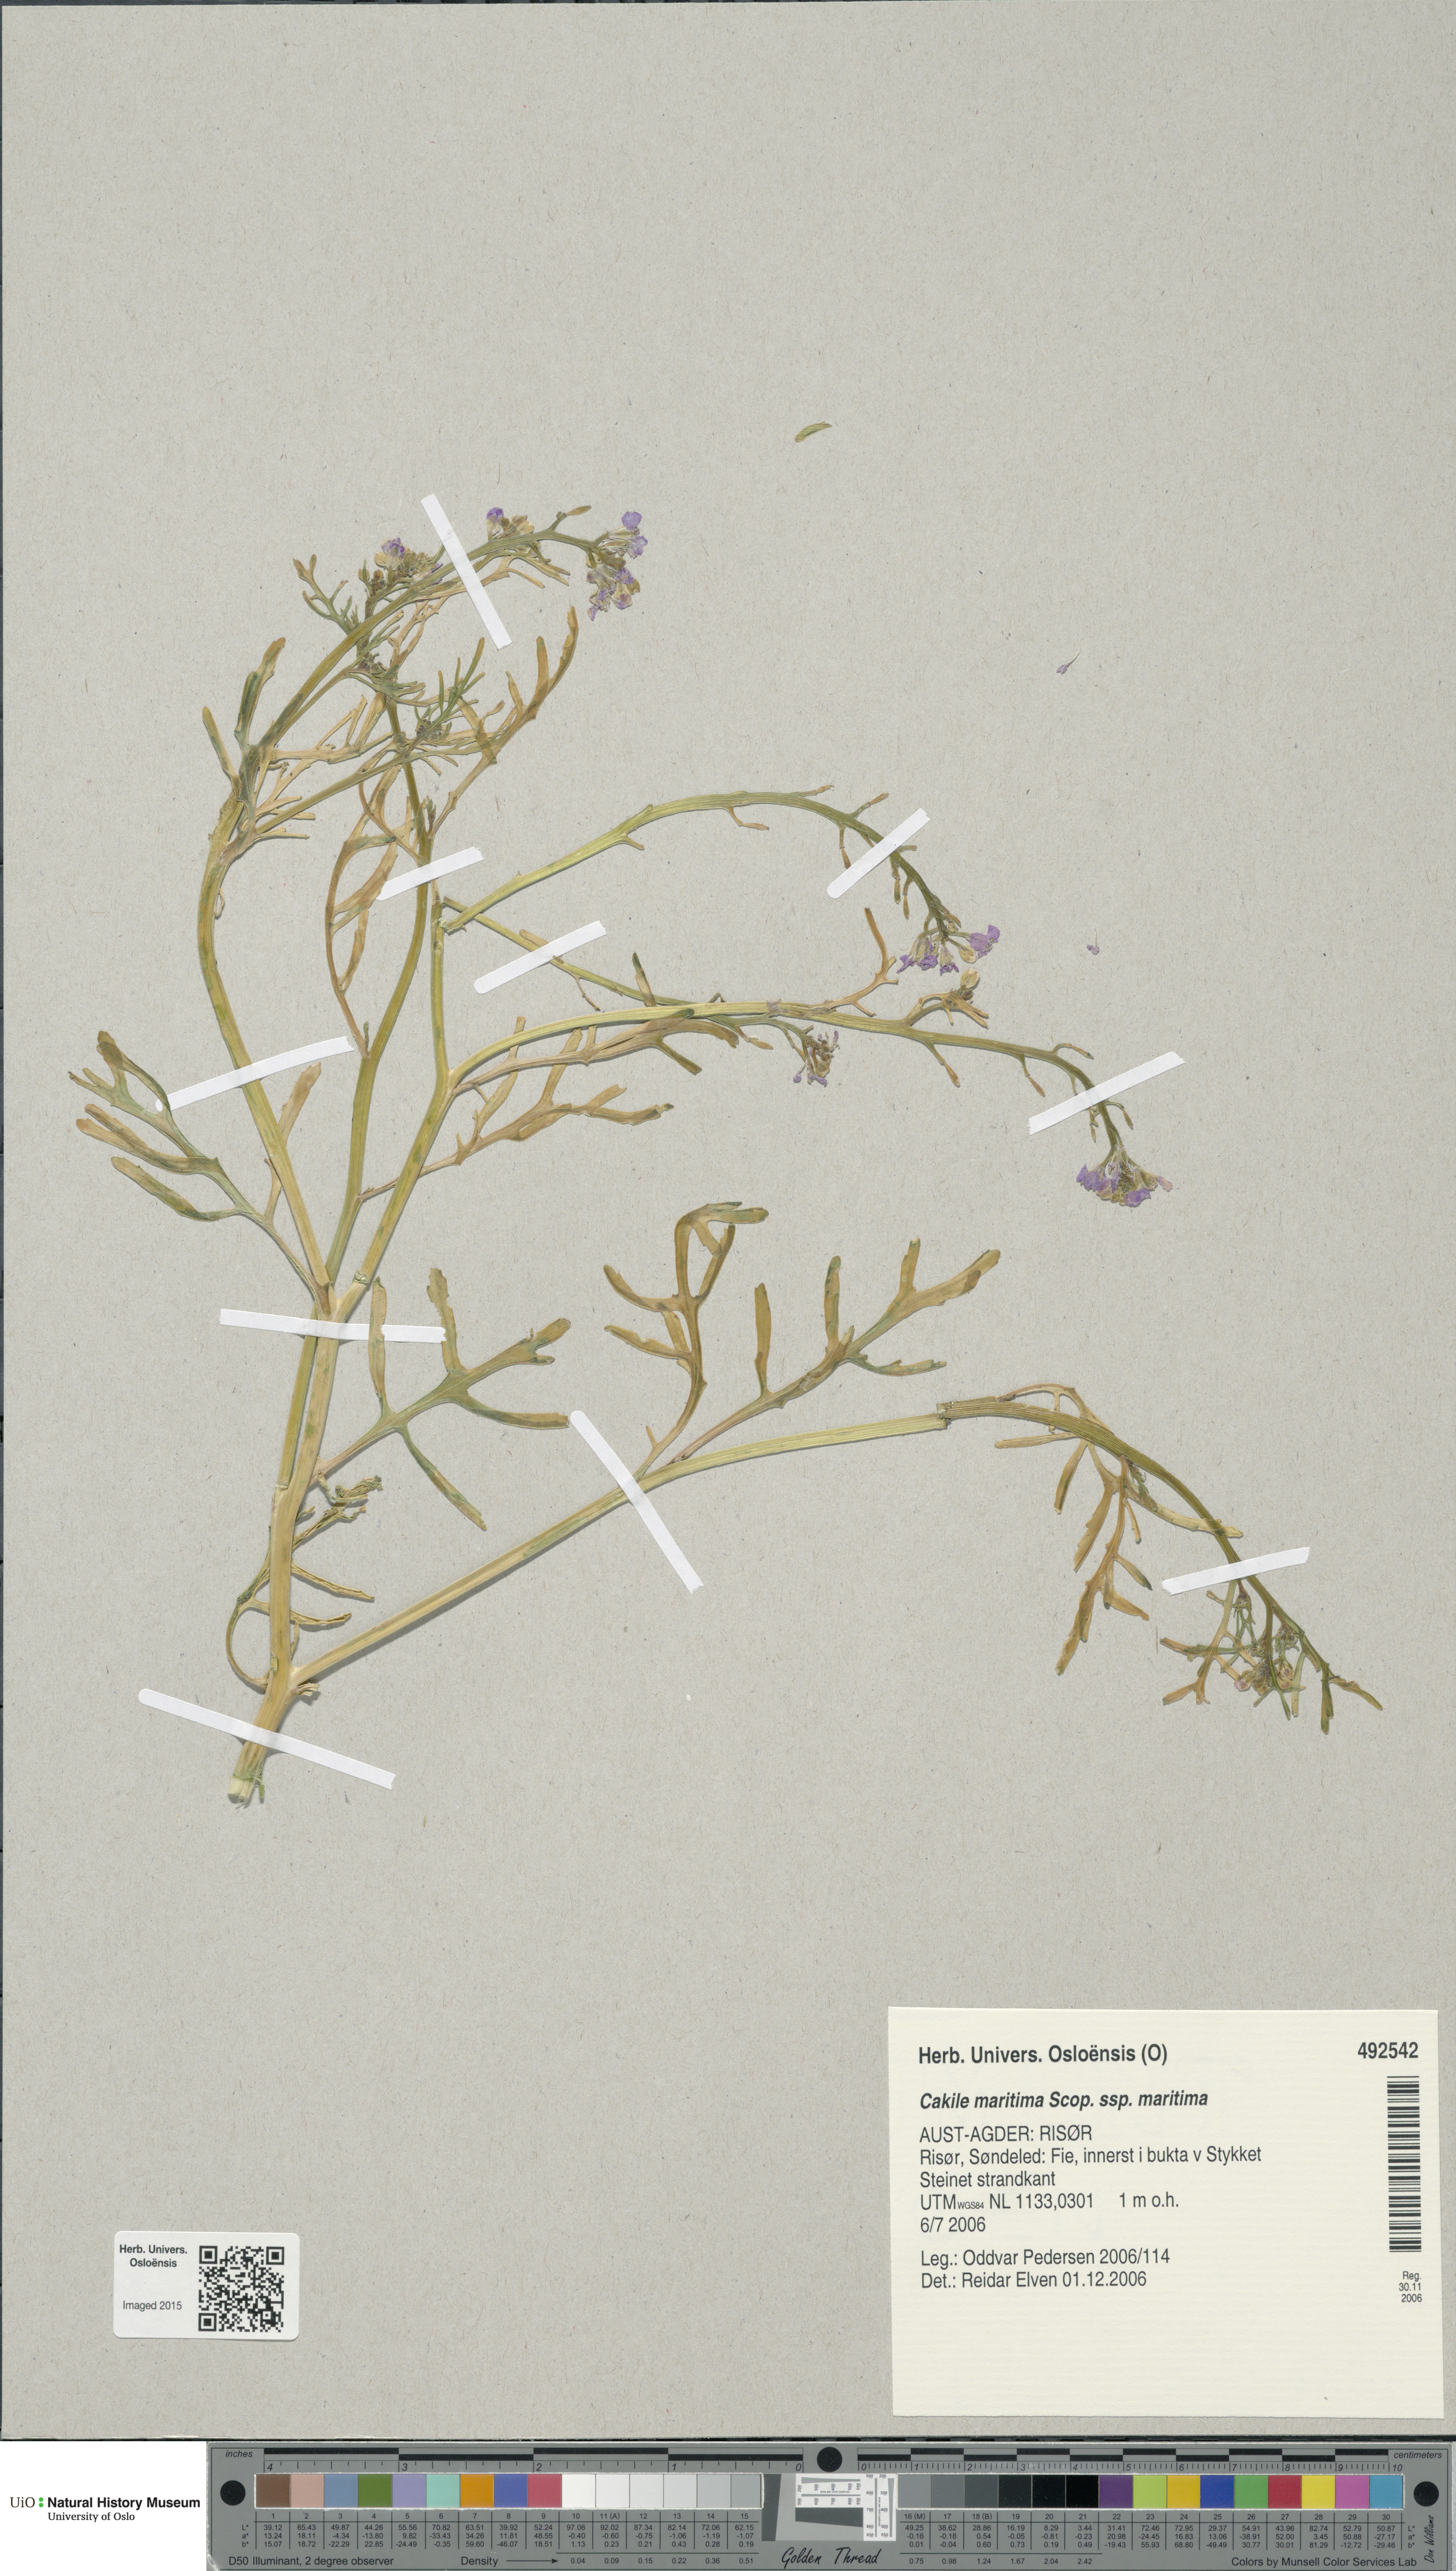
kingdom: Plantae
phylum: Tracheophyta
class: Magnoliopsida
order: Brassicales
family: Brassicaceae
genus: Cakile
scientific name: Cakile maritima
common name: Sea rocket
